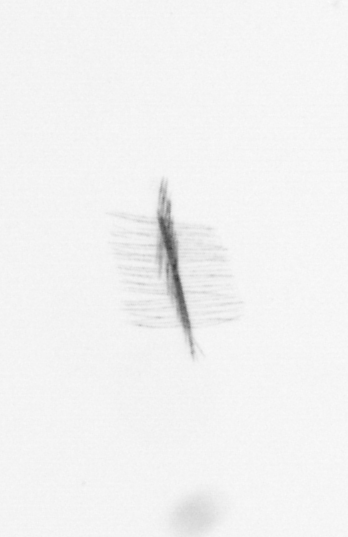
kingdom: Chromista
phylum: Ochrophyta
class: Bacillariophyceae
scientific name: Bacillariophyceae
